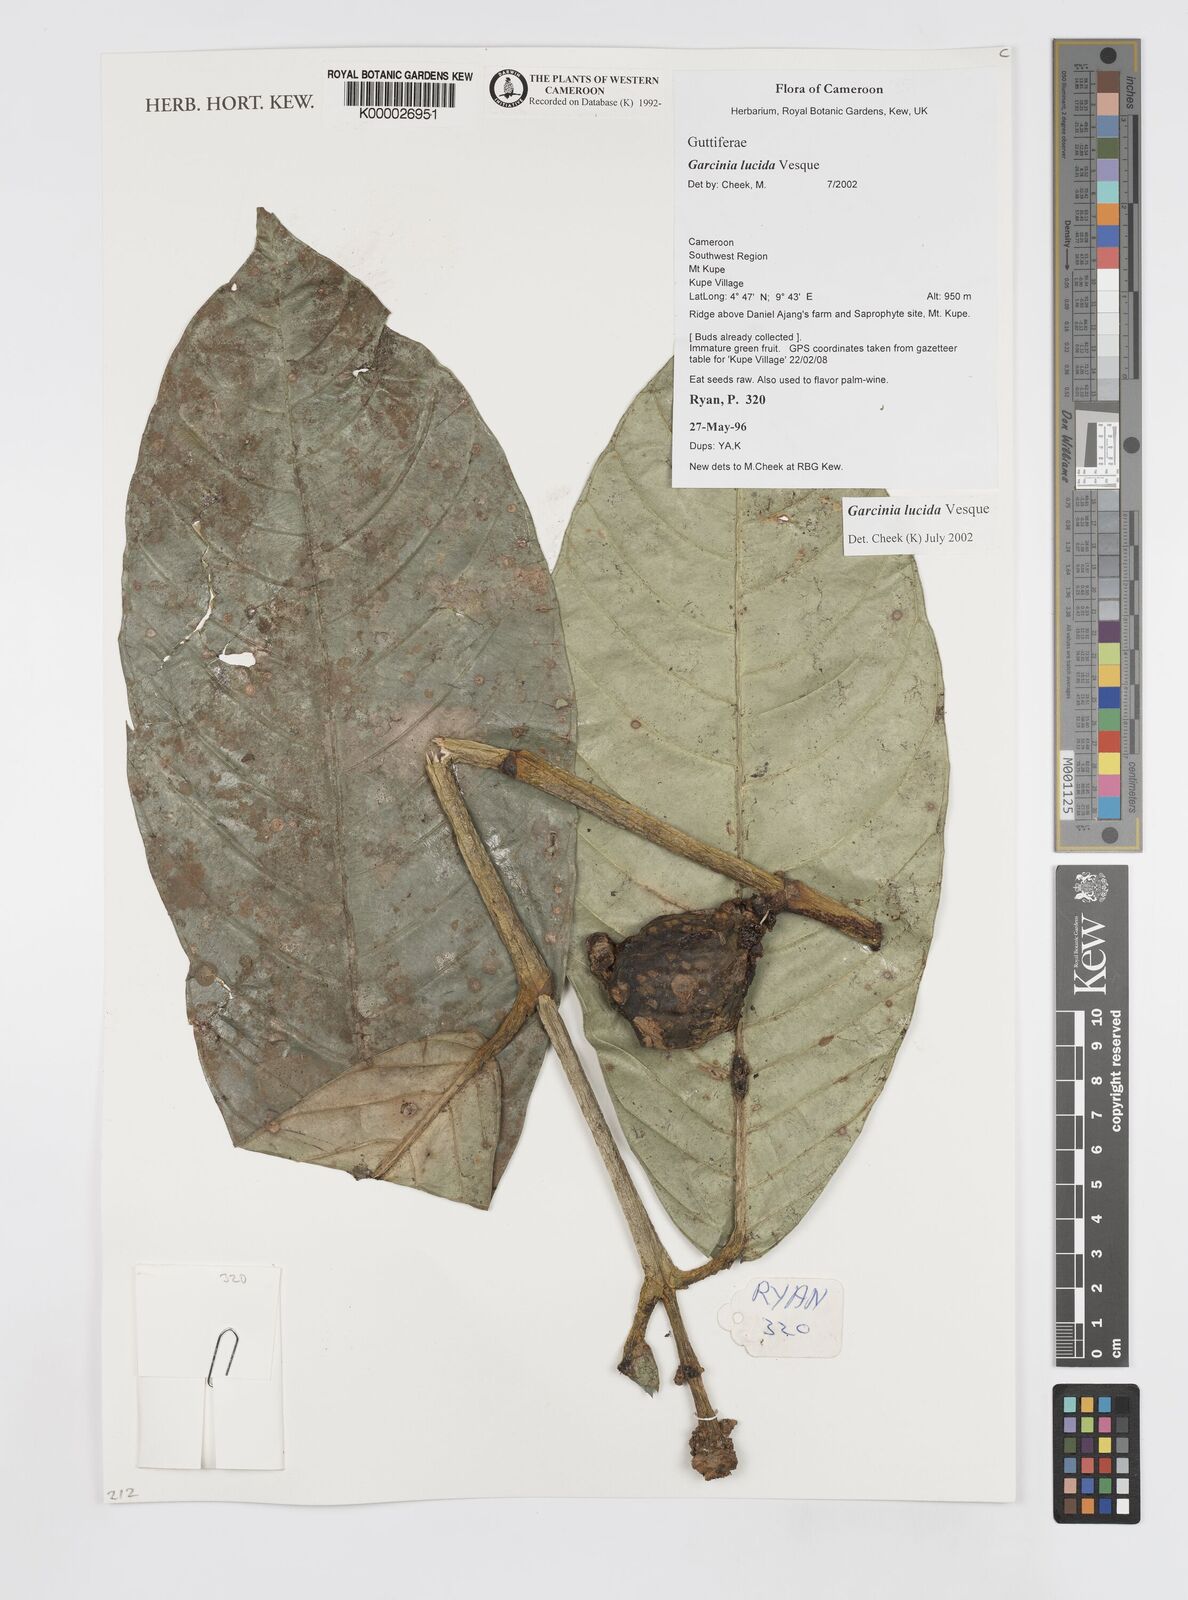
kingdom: Plantae
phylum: Tracheophyta
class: Magnoliopsida
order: Malpighiales
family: Clusiaceae
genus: Garcinia
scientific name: Garcinia lucida
